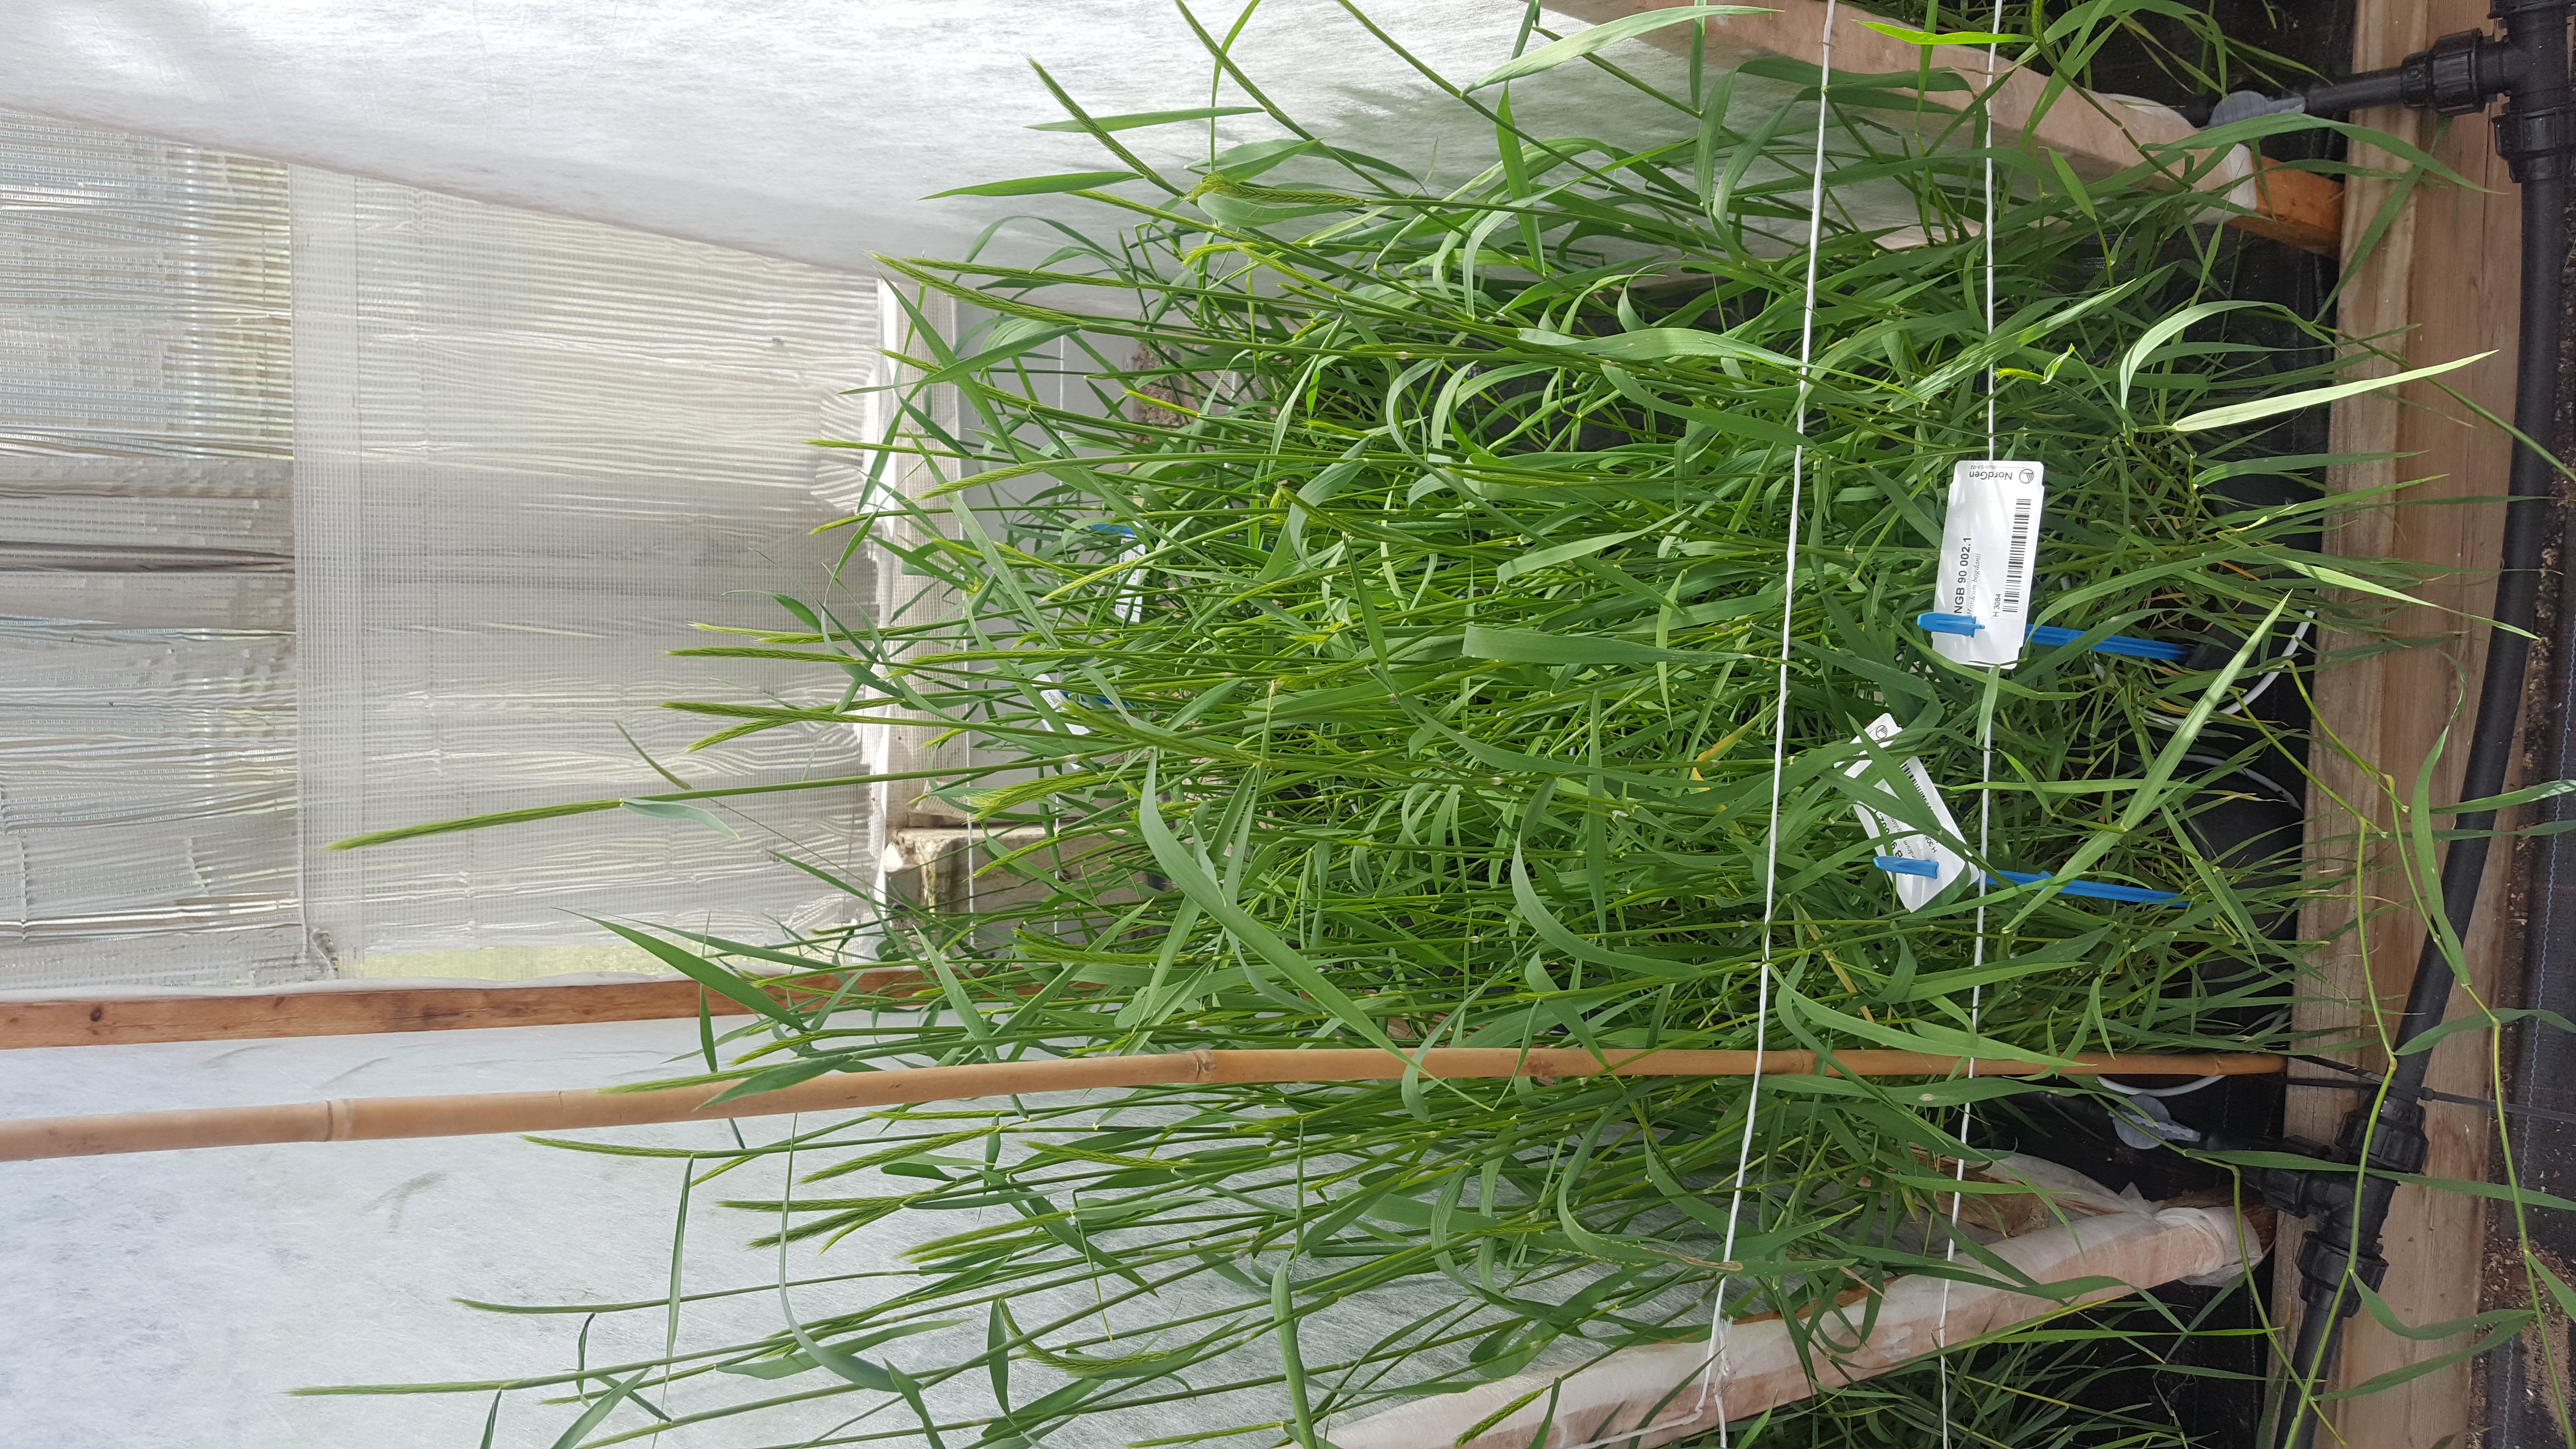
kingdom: Plantae
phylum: Tracheophyta
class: Liliopsida
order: Poales
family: Poaceae
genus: Hordeum
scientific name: Hordeum bogdanii
